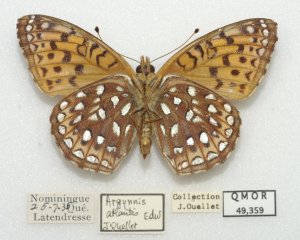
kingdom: Animalia
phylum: Arthropoda
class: Insecta
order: Lepidoptera
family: Nymphalidae
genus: Speyeria
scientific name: Speyeria atlantis
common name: Atlantis Fritillary
